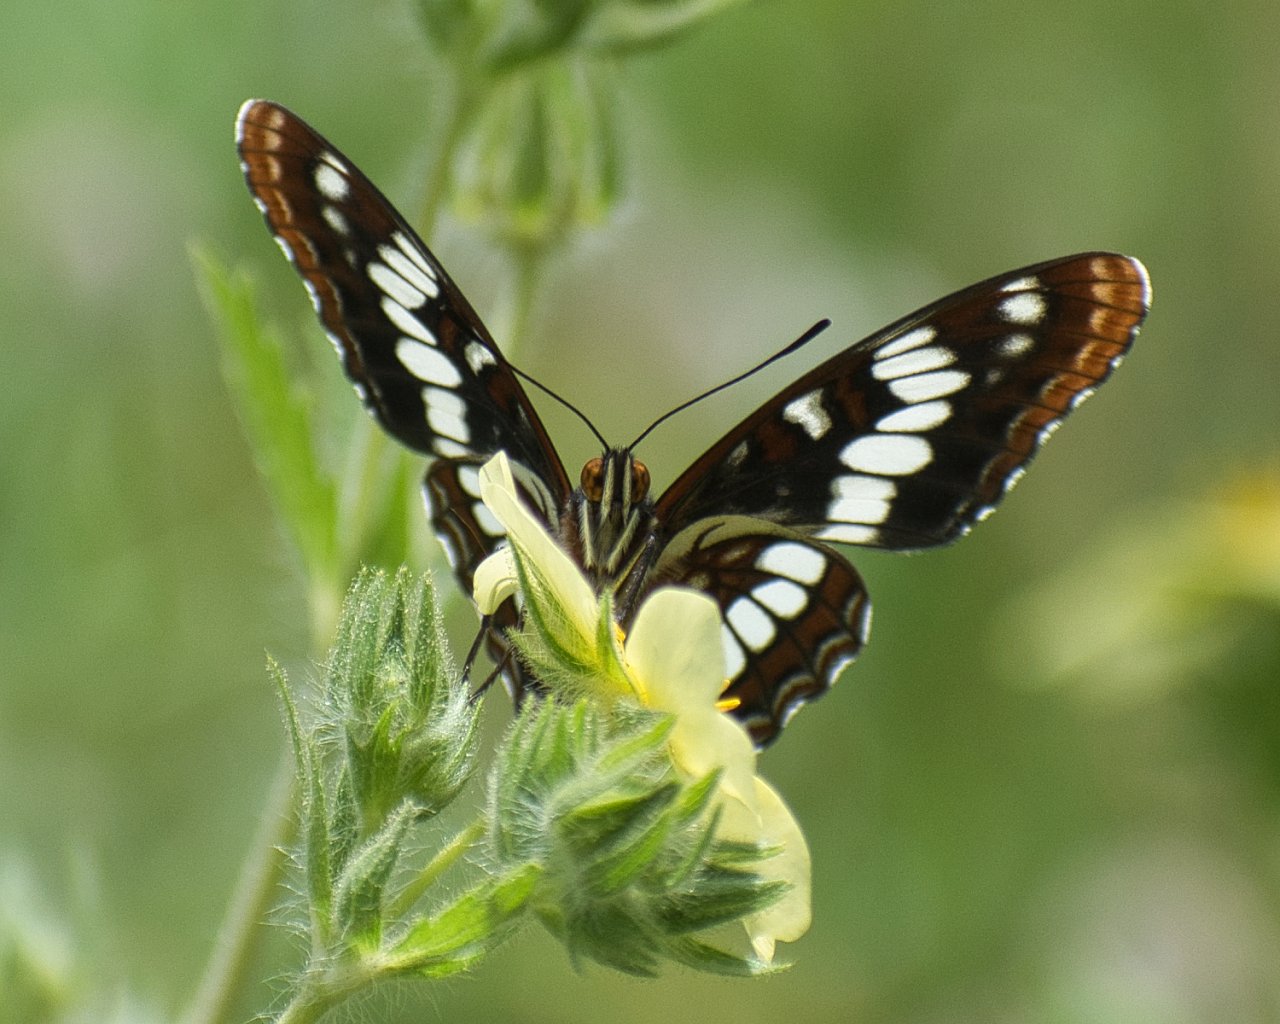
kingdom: Animalia
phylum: Arthropoda
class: Insecta
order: Lepidoptera
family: Nymphalidae
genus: Limenitis
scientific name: Limenitis lorquini
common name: Lorquin's Admiral
